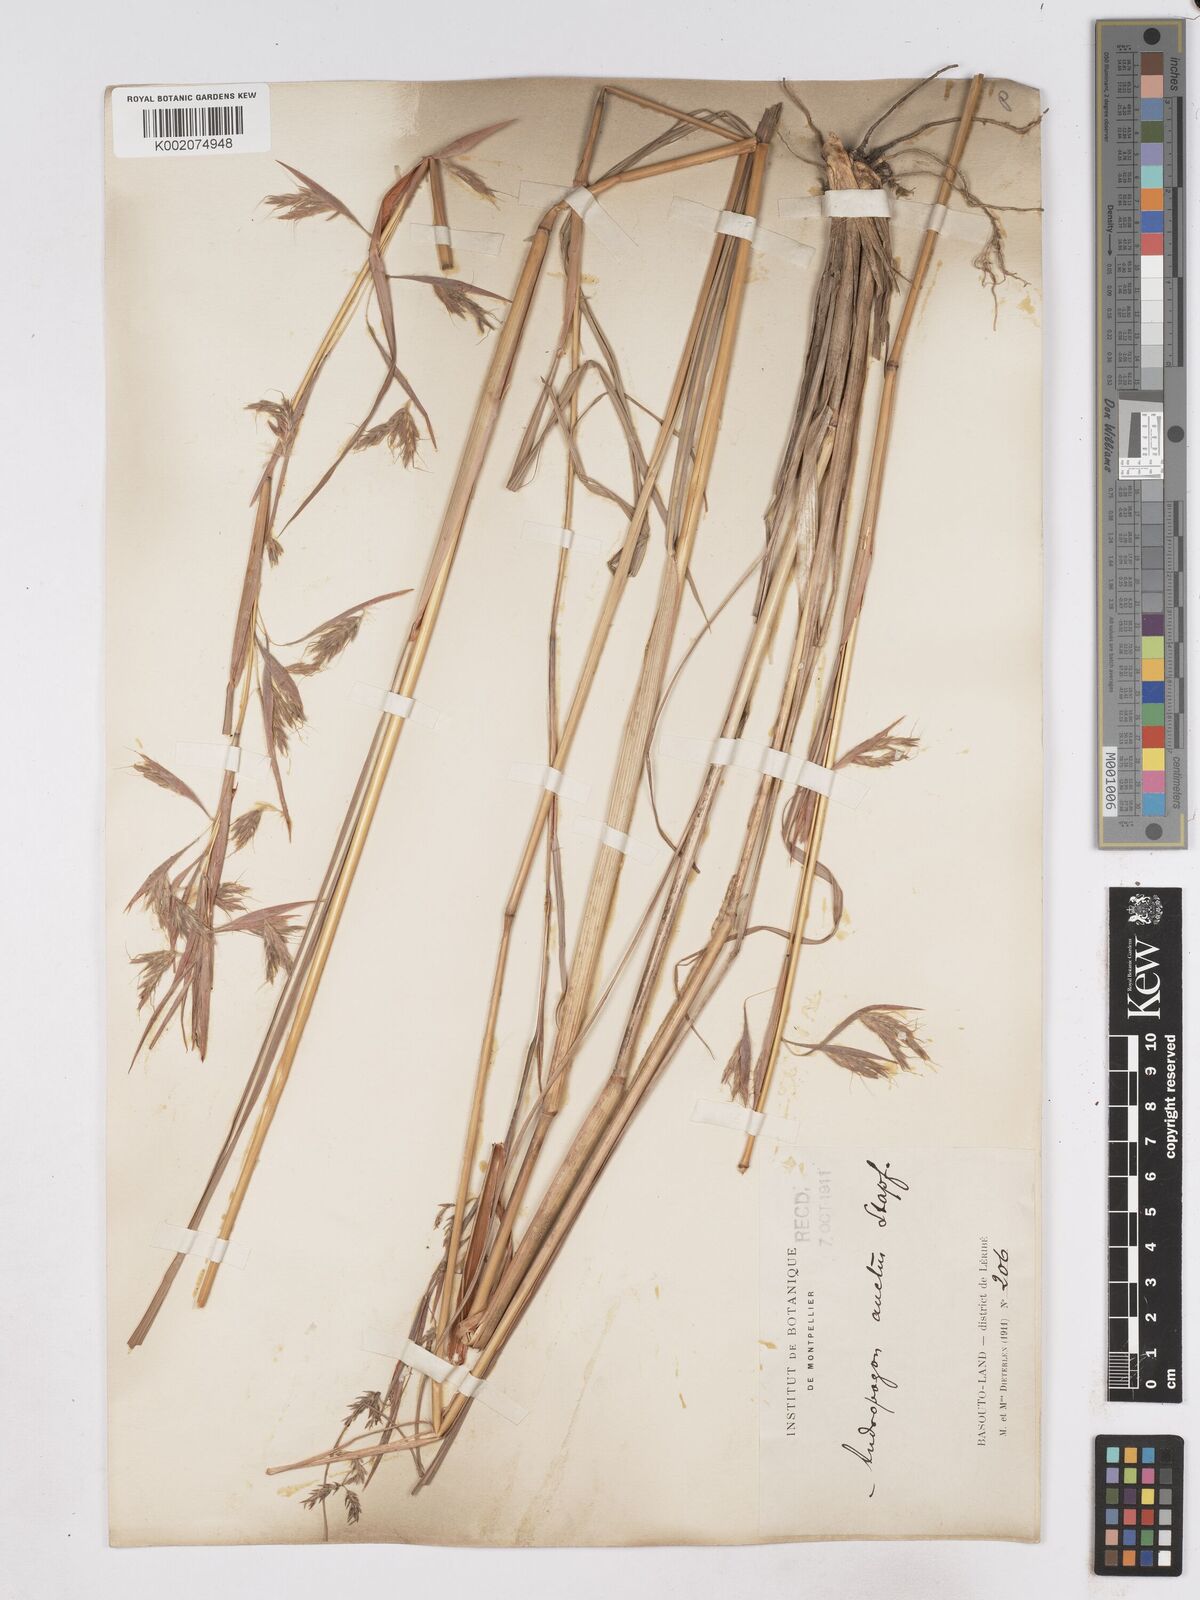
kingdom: Plantae
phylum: Tracheophyta
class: Liliopsida
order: Poales
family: Poaceae
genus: Hyparrhenia
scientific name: Hyparrhenia dregeana
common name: Silky thatching grass
